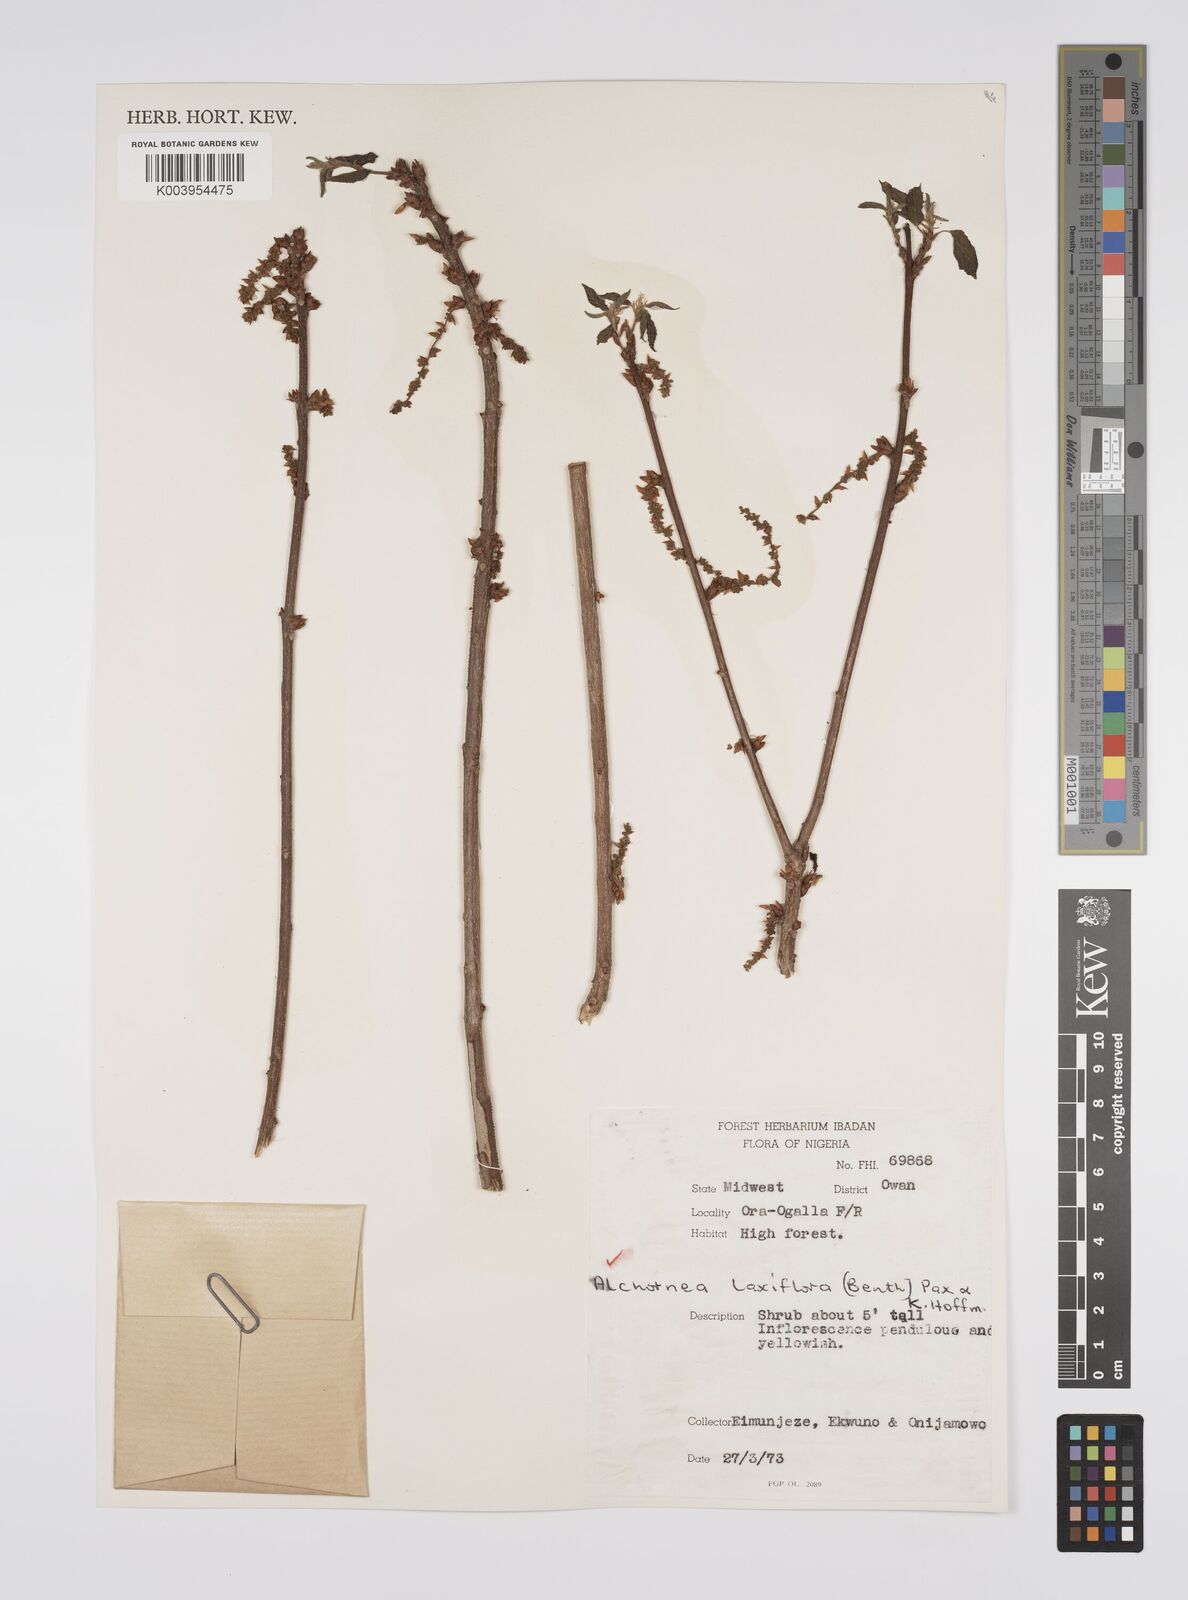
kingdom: Plantae
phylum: Tracheophyta
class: Magnoliopsida
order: Malpighiales
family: Euphorbiaceae
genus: Alchornea
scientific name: Alchornea laxiflora
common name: Lowveld bead-string
